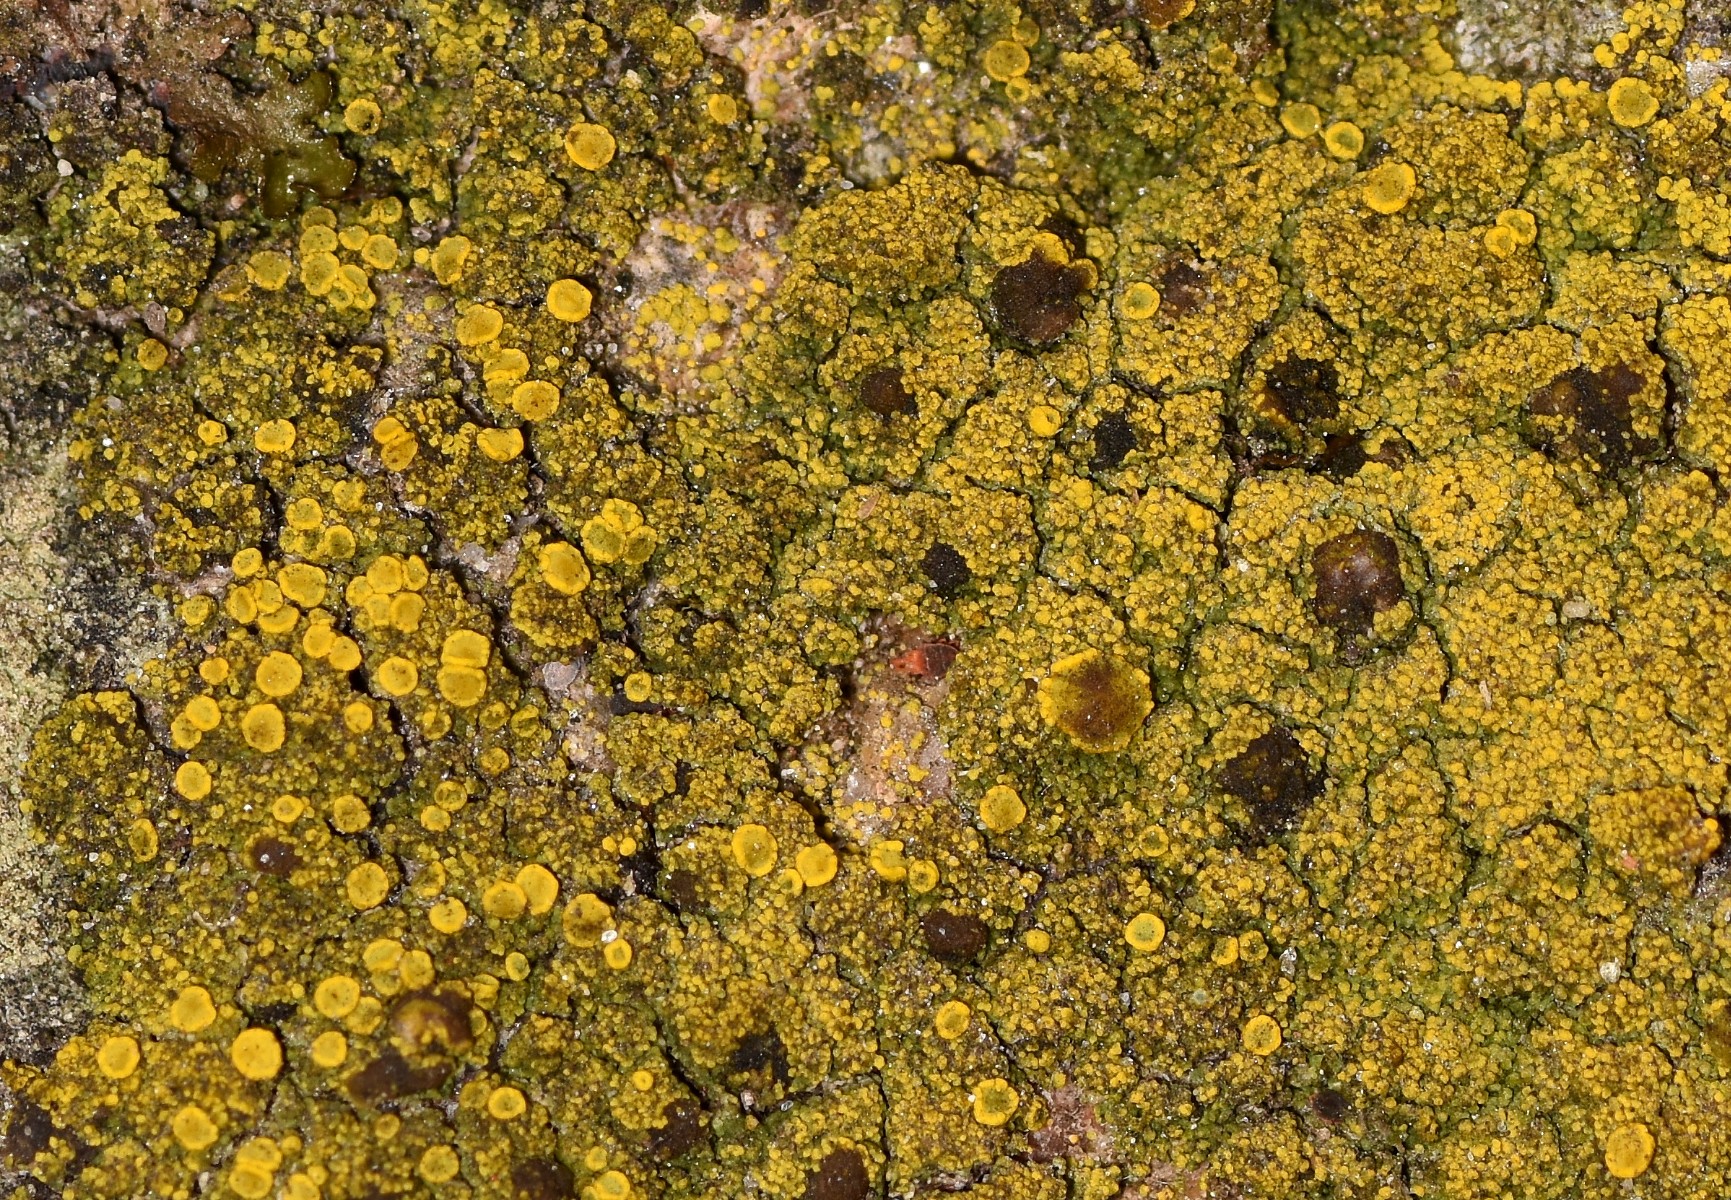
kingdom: Fungi
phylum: Ascomycota
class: Candelariomycetes
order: Candelariales
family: Candelariaceae
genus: Candelariella
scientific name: Candelariella vitellina
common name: almindelig æggeblommelav
